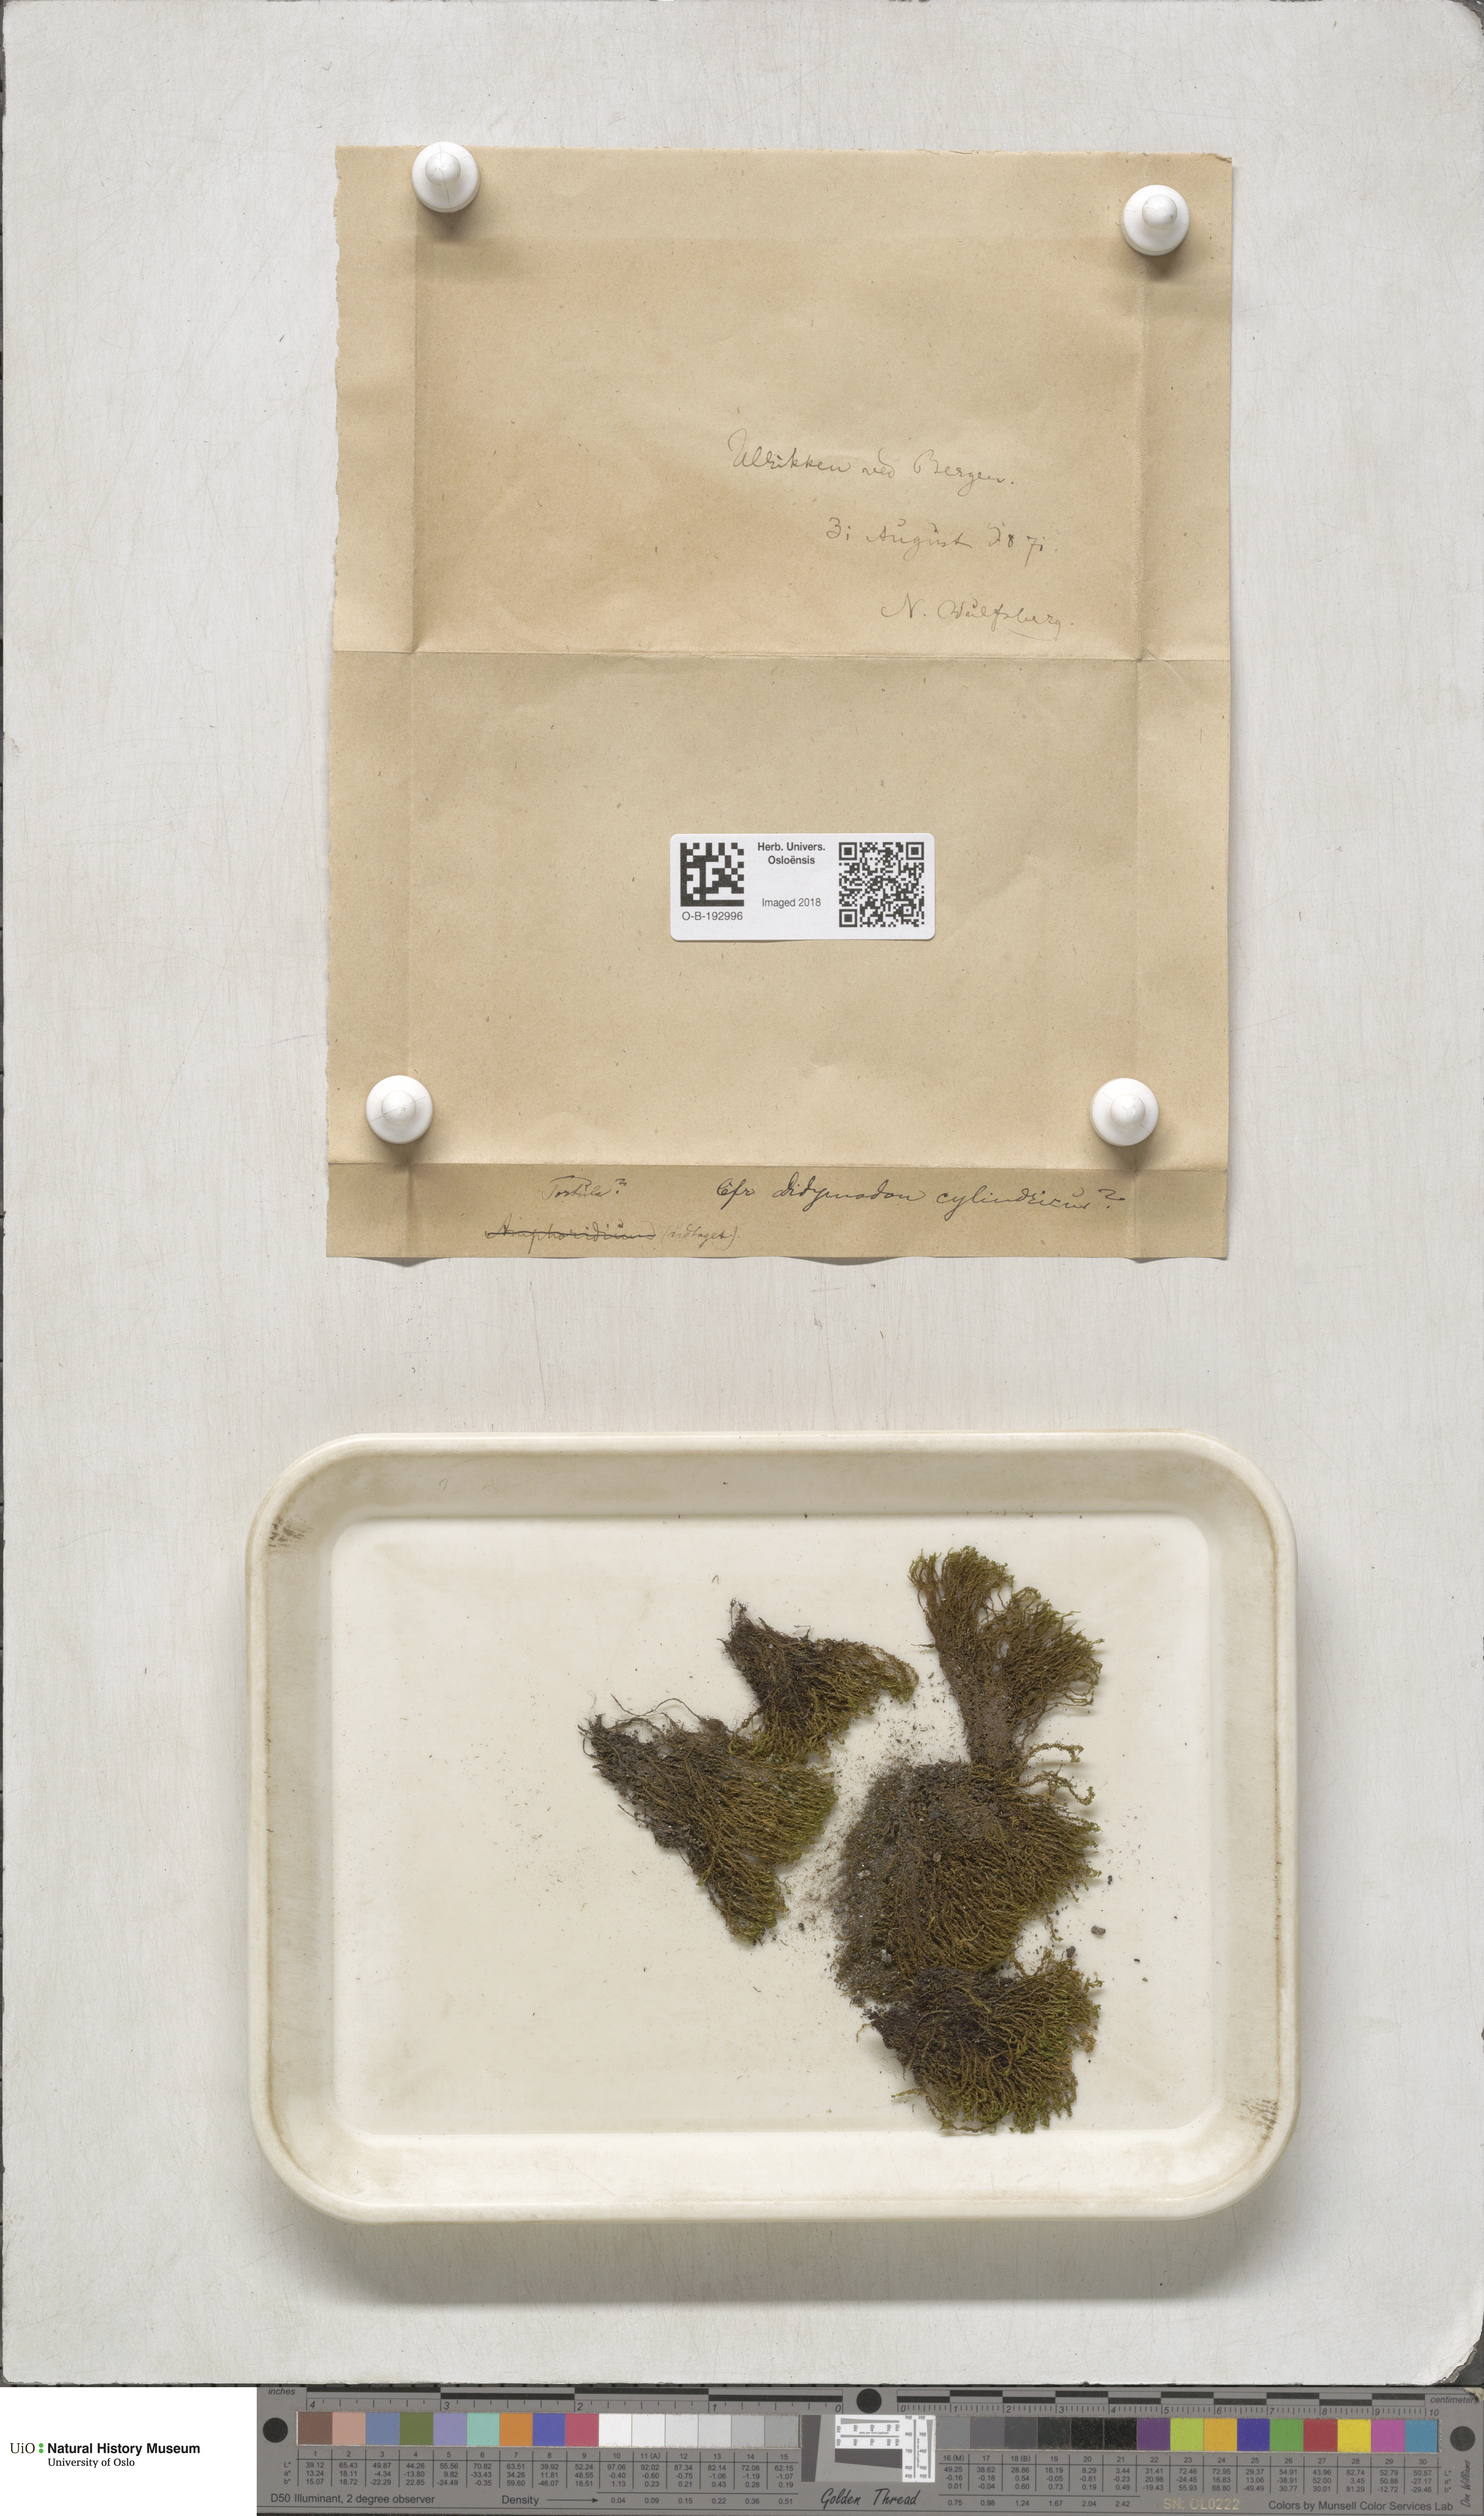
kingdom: Plantae
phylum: Bryophyta
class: Bryopsida
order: Pottiales
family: Pottiaceae
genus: Chionoloma
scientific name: Chionoloma tenuirostre
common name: Narrow-fruited crisp-moss
